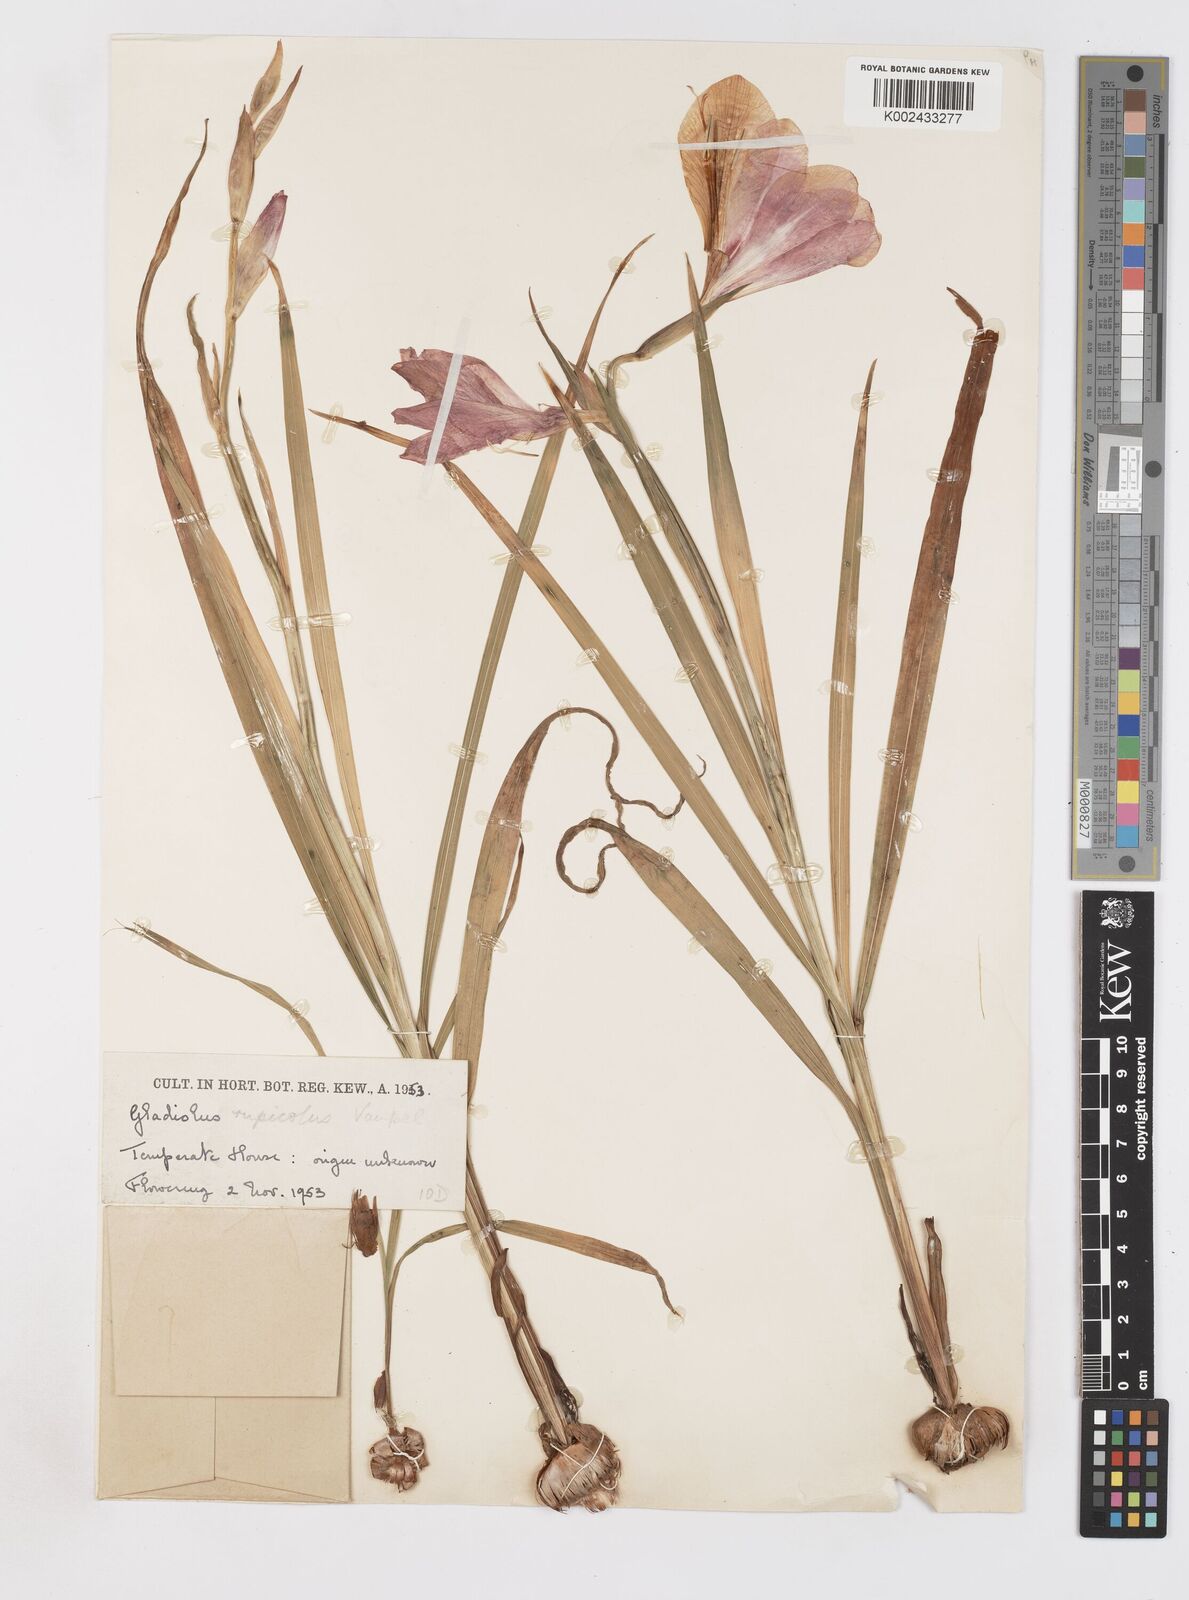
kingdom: Plantae
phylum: Tracheophyta
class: Liliopsida
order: Asparagales
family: Iridaceae
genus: Gladiolus
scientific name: Gladiolus rupicola
